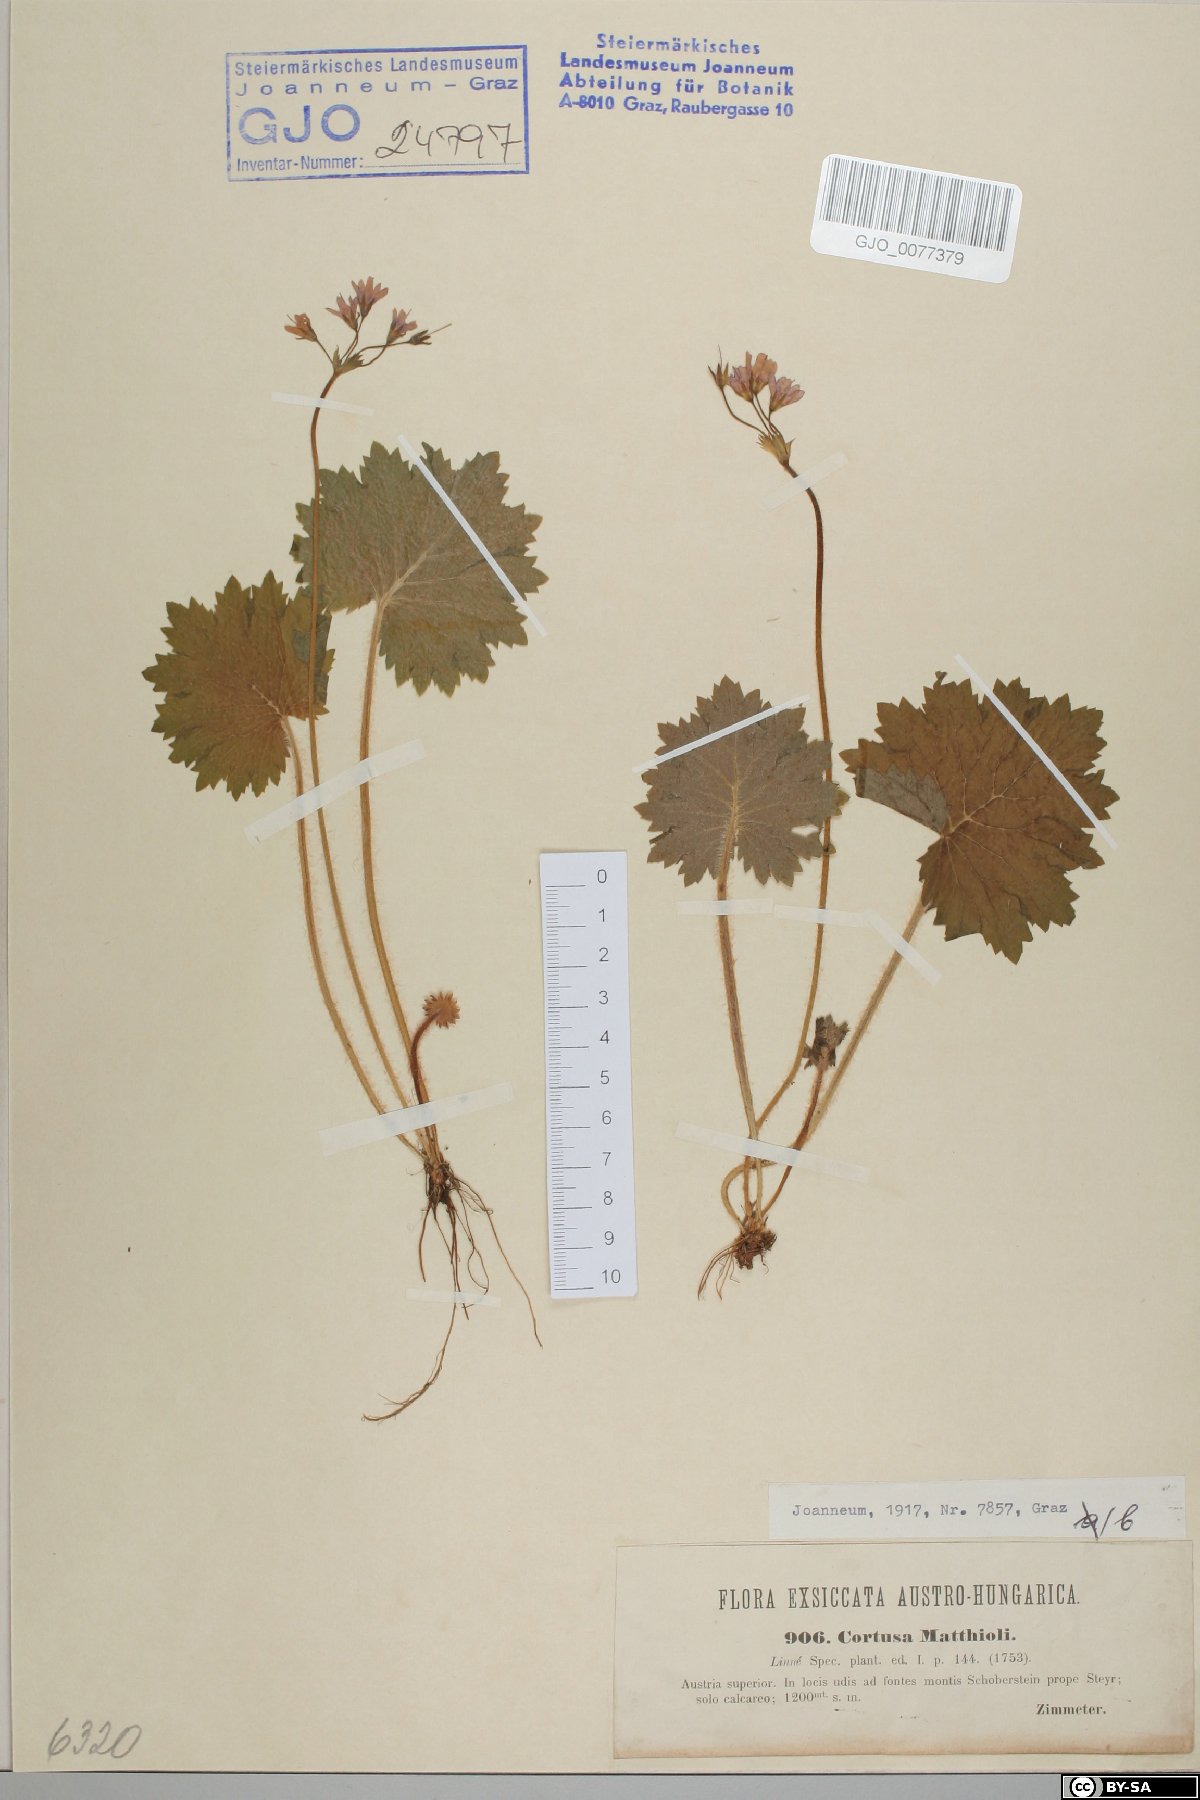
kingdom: Plantae
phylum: Tracheophyta
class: Magnoliopsida
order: Ericales
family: Primulaceae
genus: Primula
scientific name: Primula matthioli
